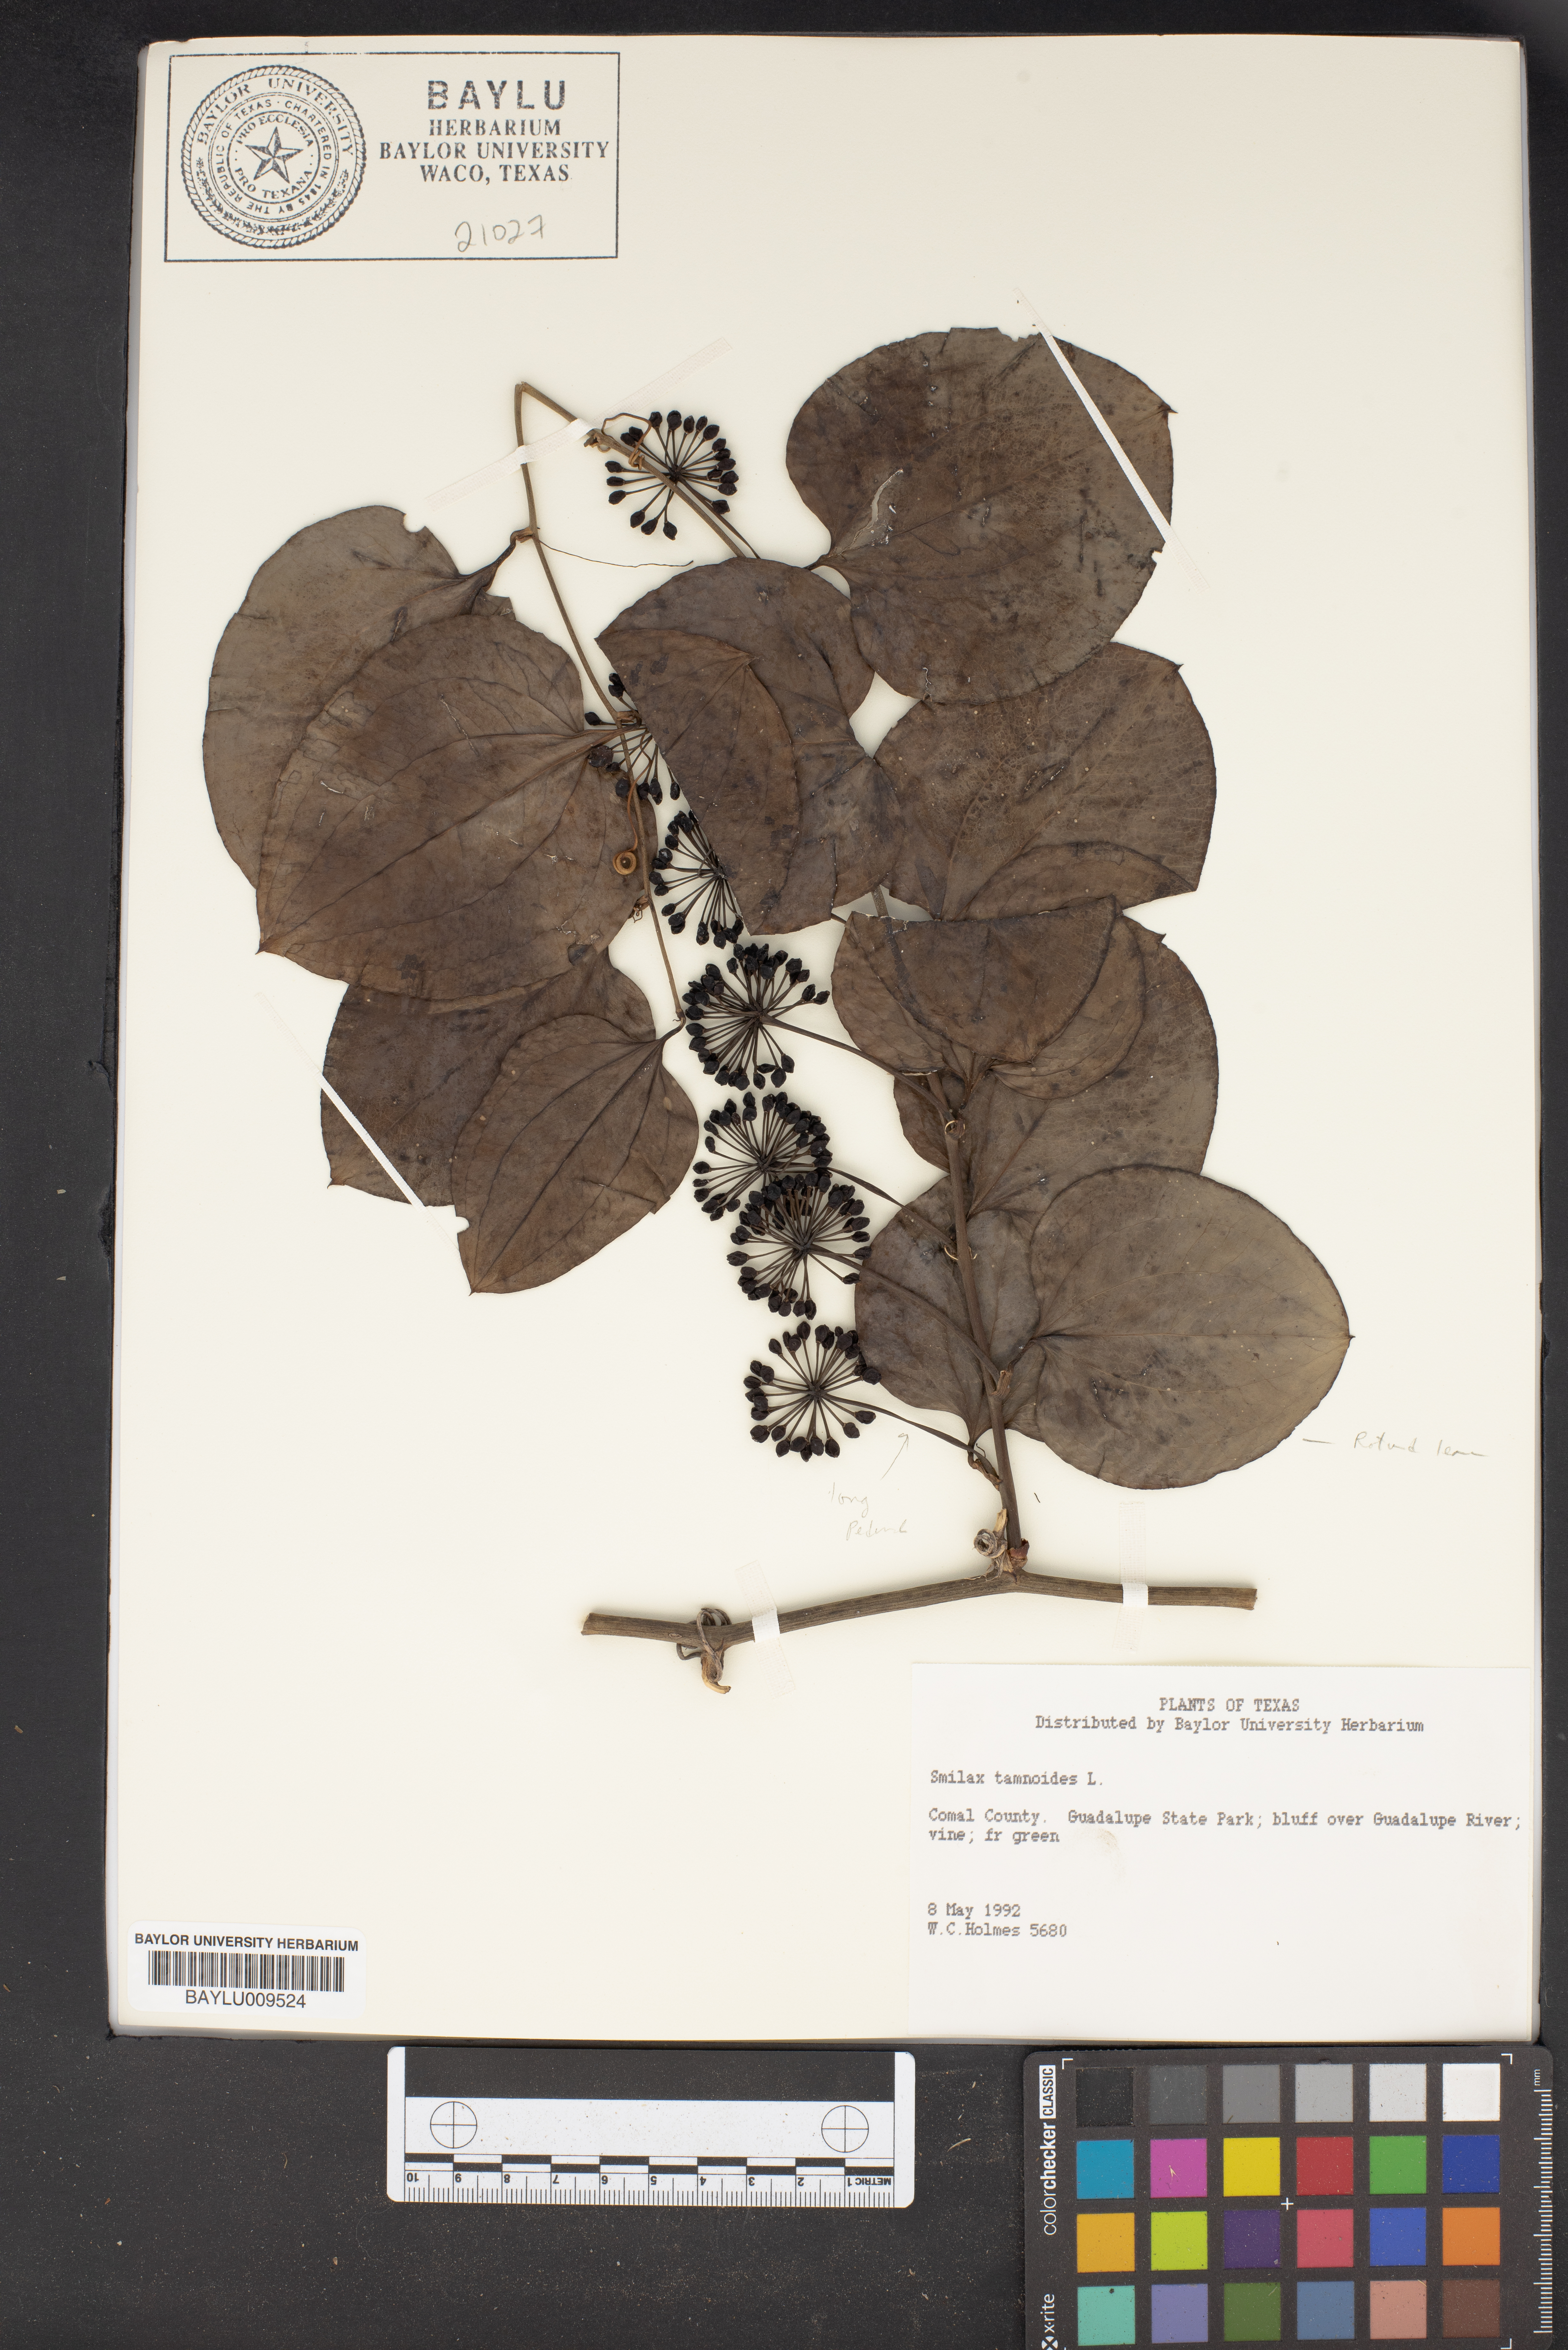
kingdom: Plantae
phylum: Tracheophyta
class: Liliopsida
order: Liliales
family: Smilacaceae
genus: Smilax
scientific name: Smilax tamnoides
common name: Hellfetter
